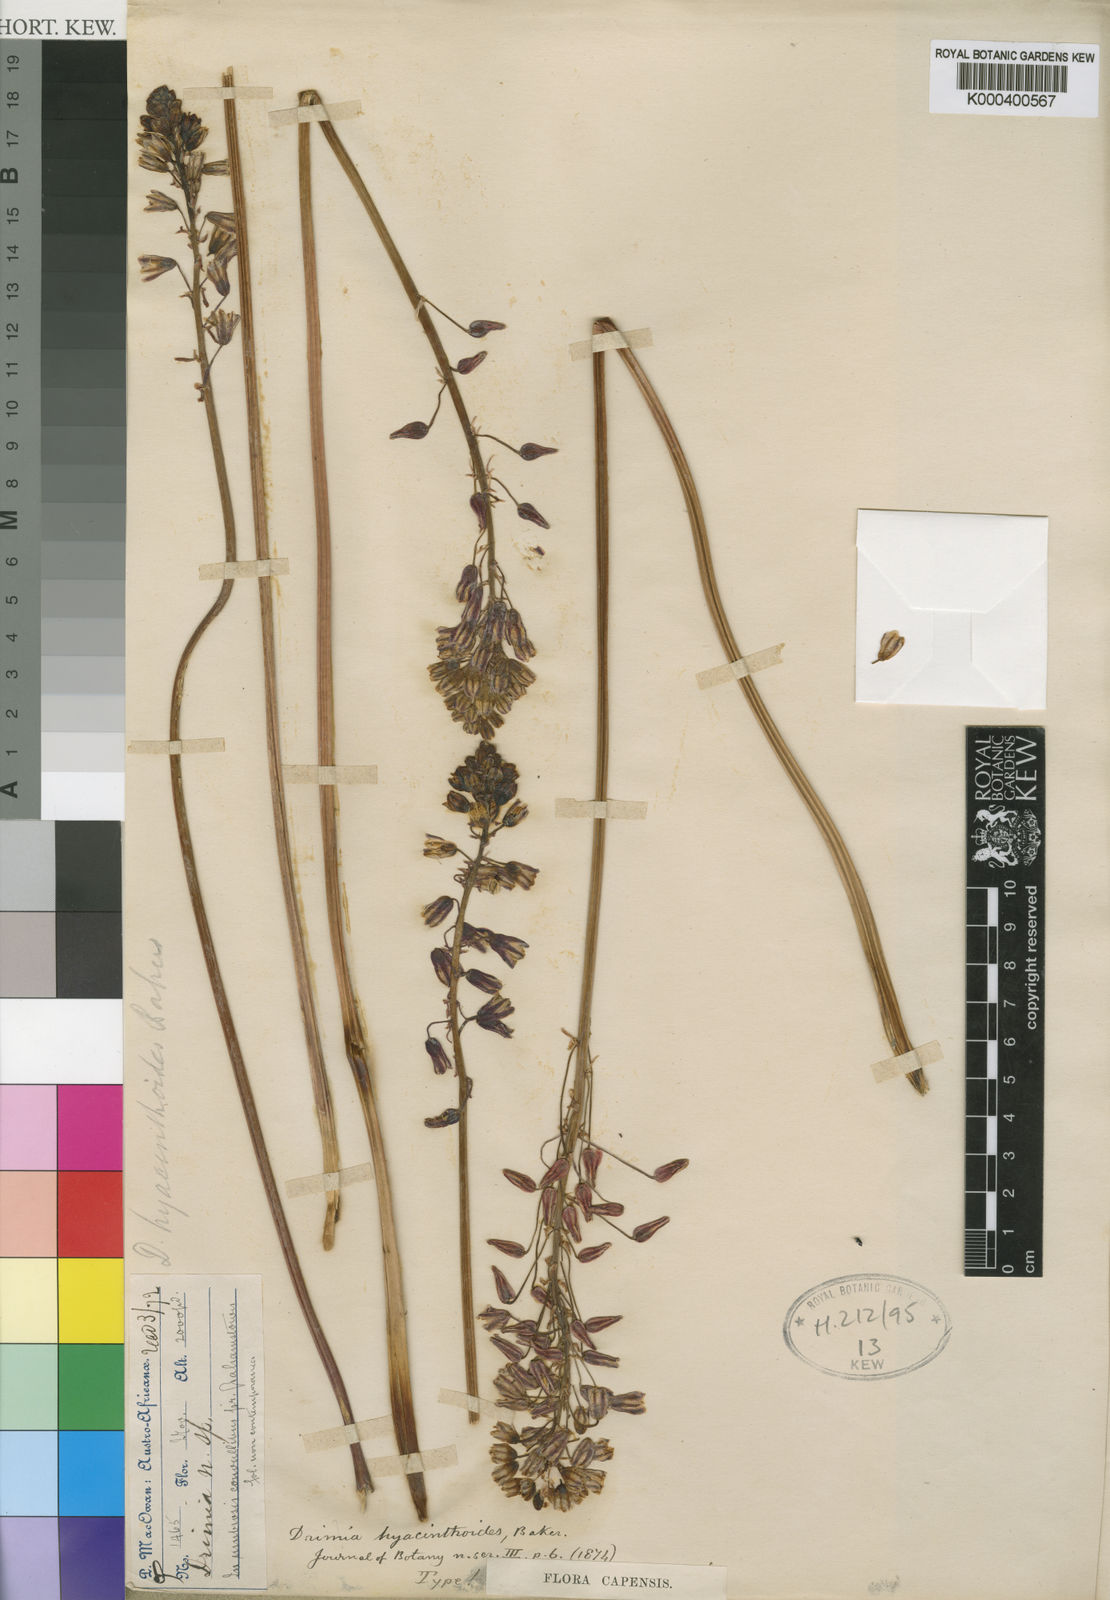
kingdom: Plantae
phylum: Tracheophyta
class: Liliopsida
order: Asparagales
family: Asparagaceae
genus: Drimia
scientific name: Drimia hyacinthoides
